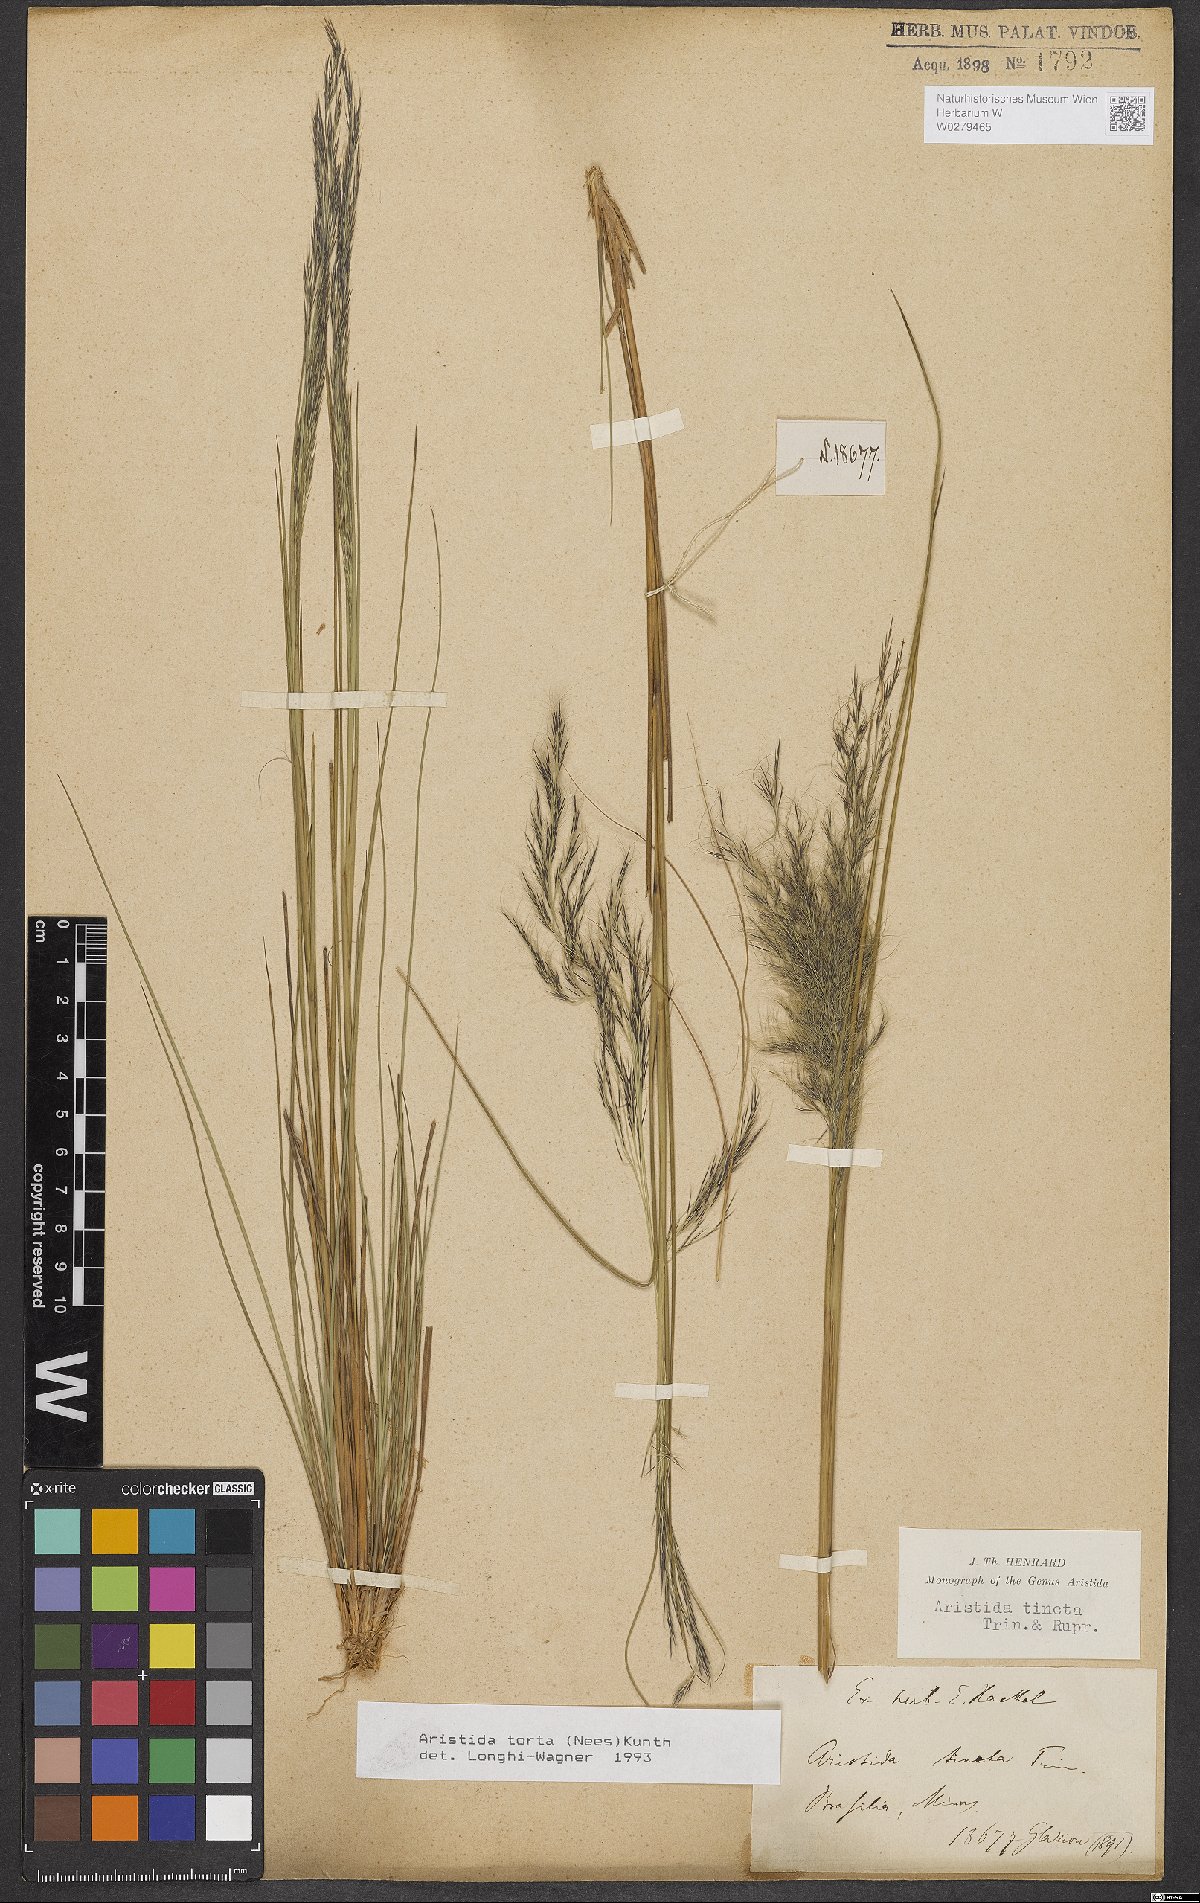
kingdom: Plantae
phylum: Tracheophyta
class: Liliopsida
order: Poales
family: Poaceae
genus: Aristida
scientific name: Aristida torta
